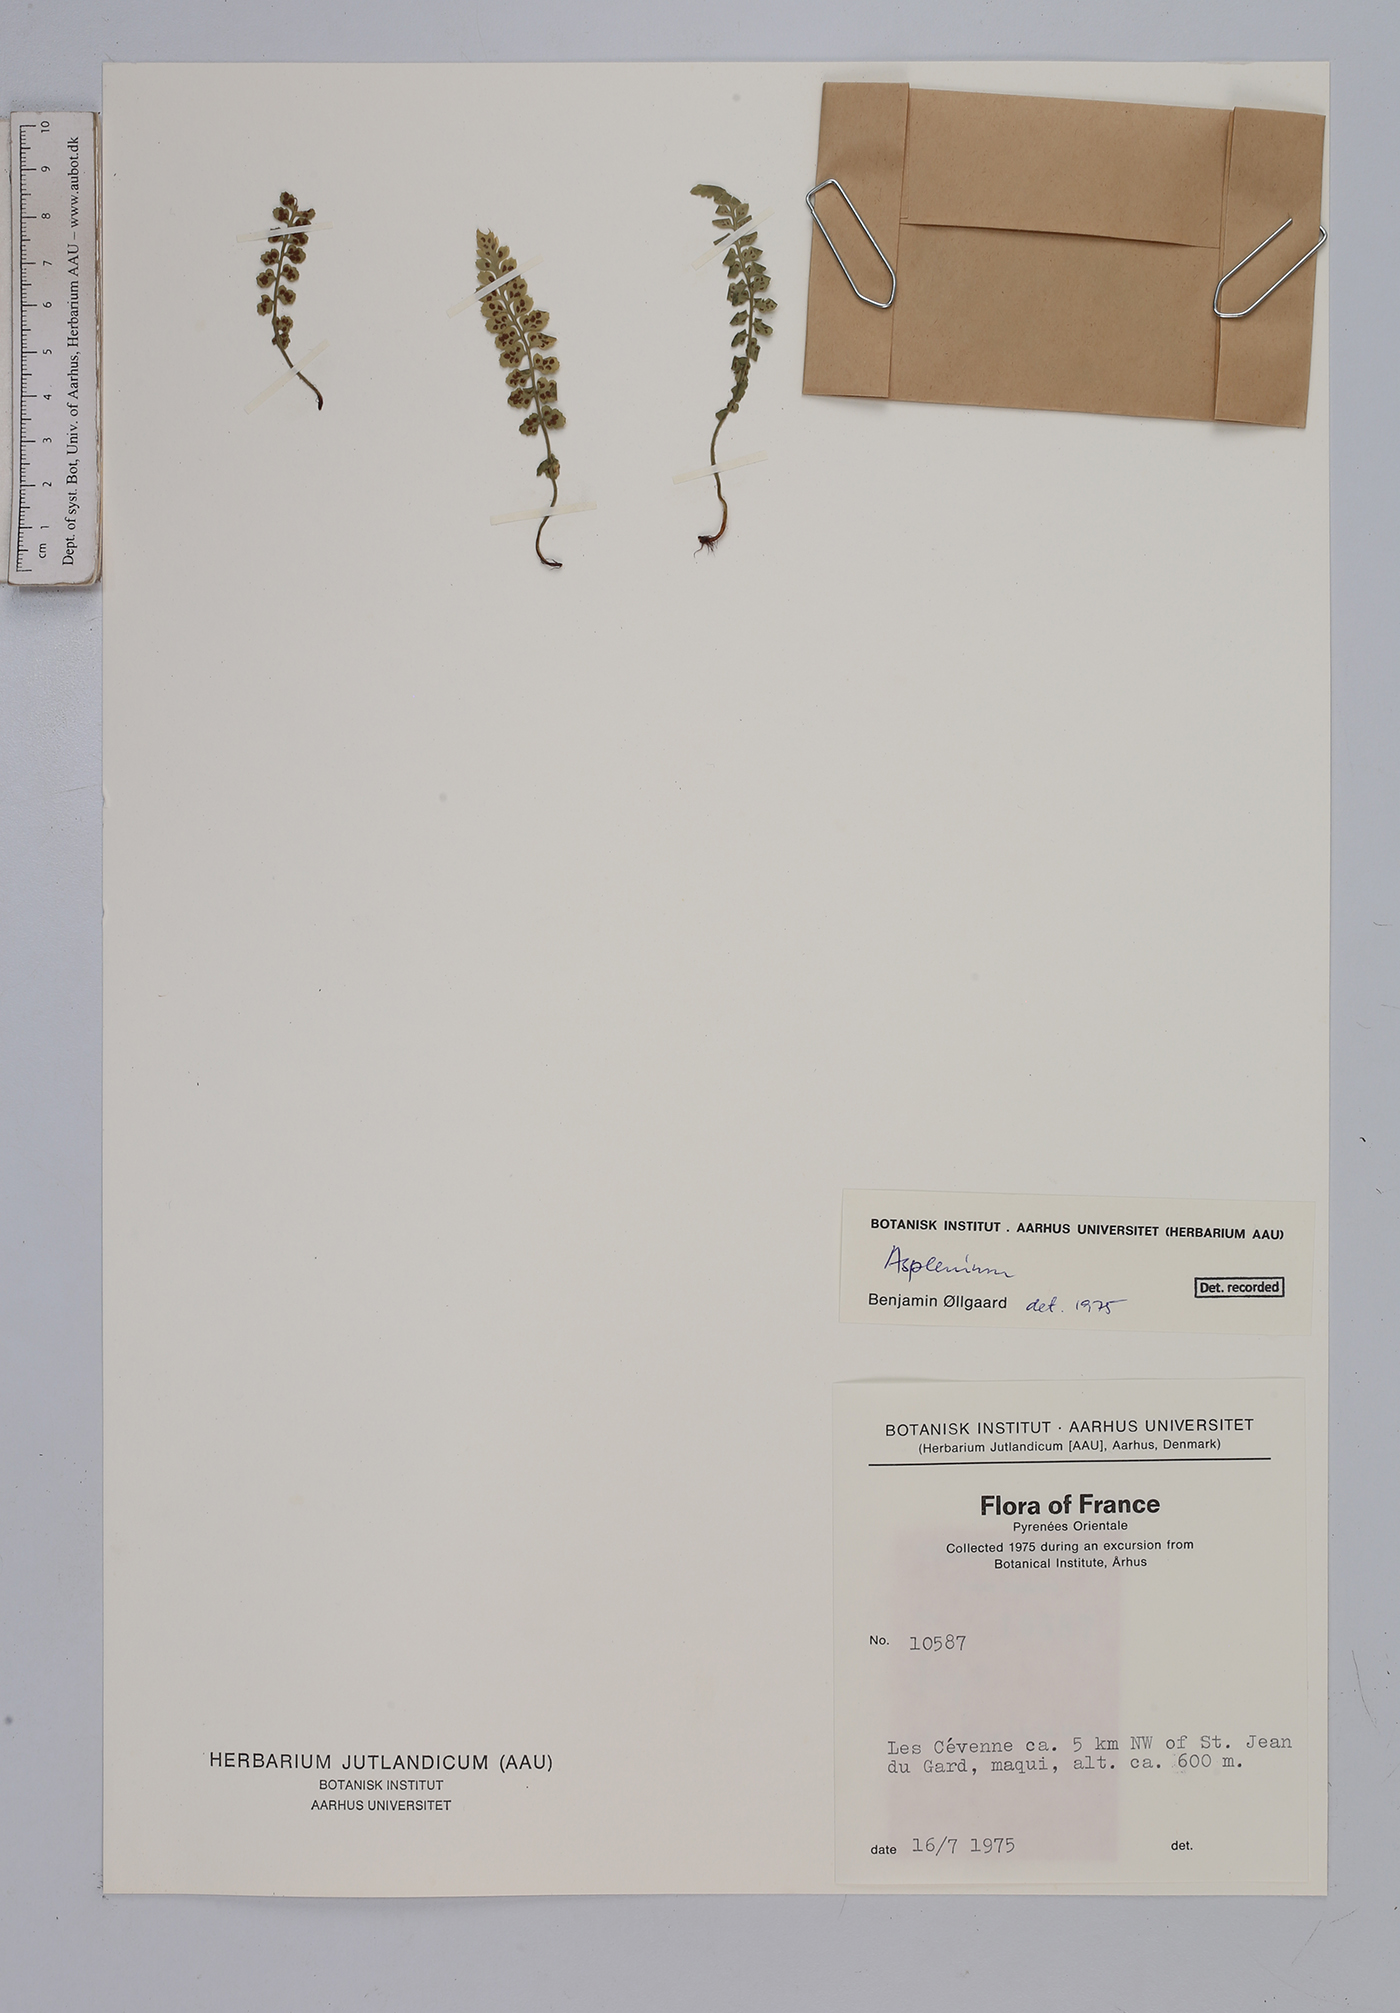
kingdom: Plantae
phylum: Tracheophyta
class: Polypodiopsida
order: Polypodiales
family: Aspleniaceae
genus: Asplenium
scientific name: Asplenium
